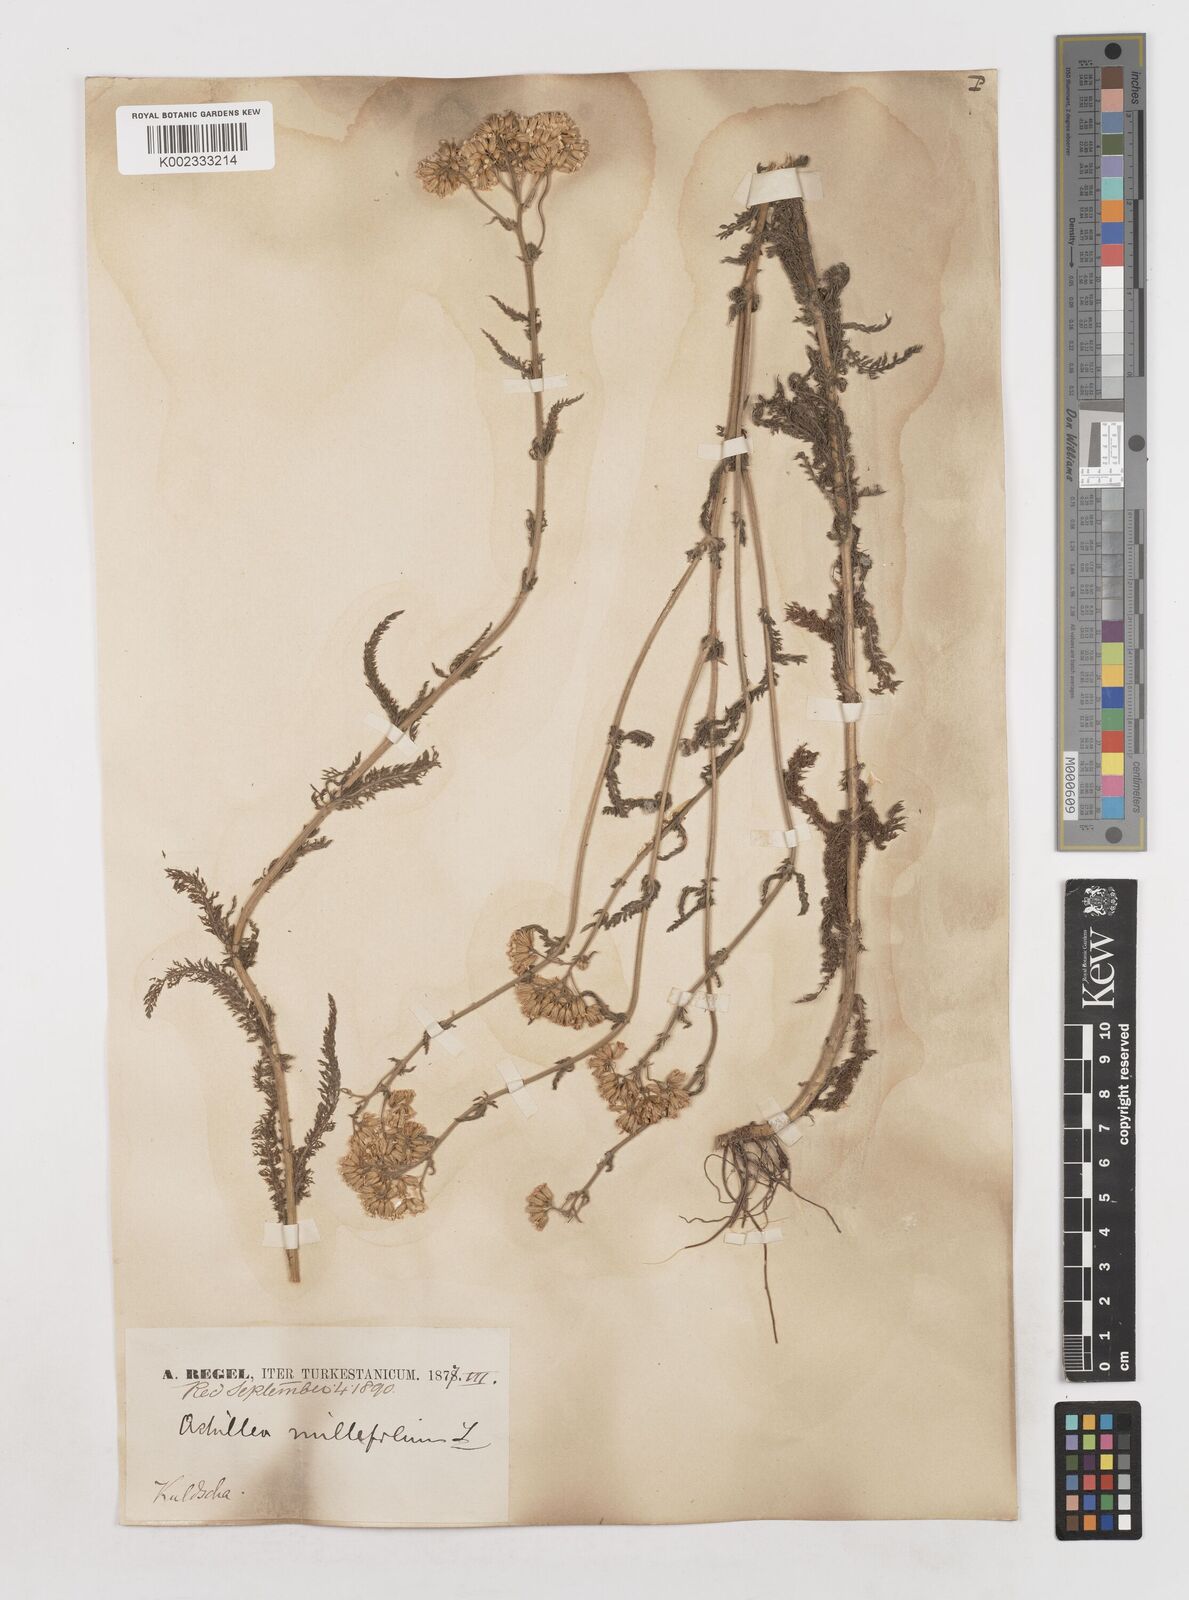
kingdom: Plantae
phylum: Tracheophyta
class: Magnoliopsida
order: Asterales
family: Asteraceae
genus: Achillea
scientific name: Achillea millefolium
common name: Yarrow
